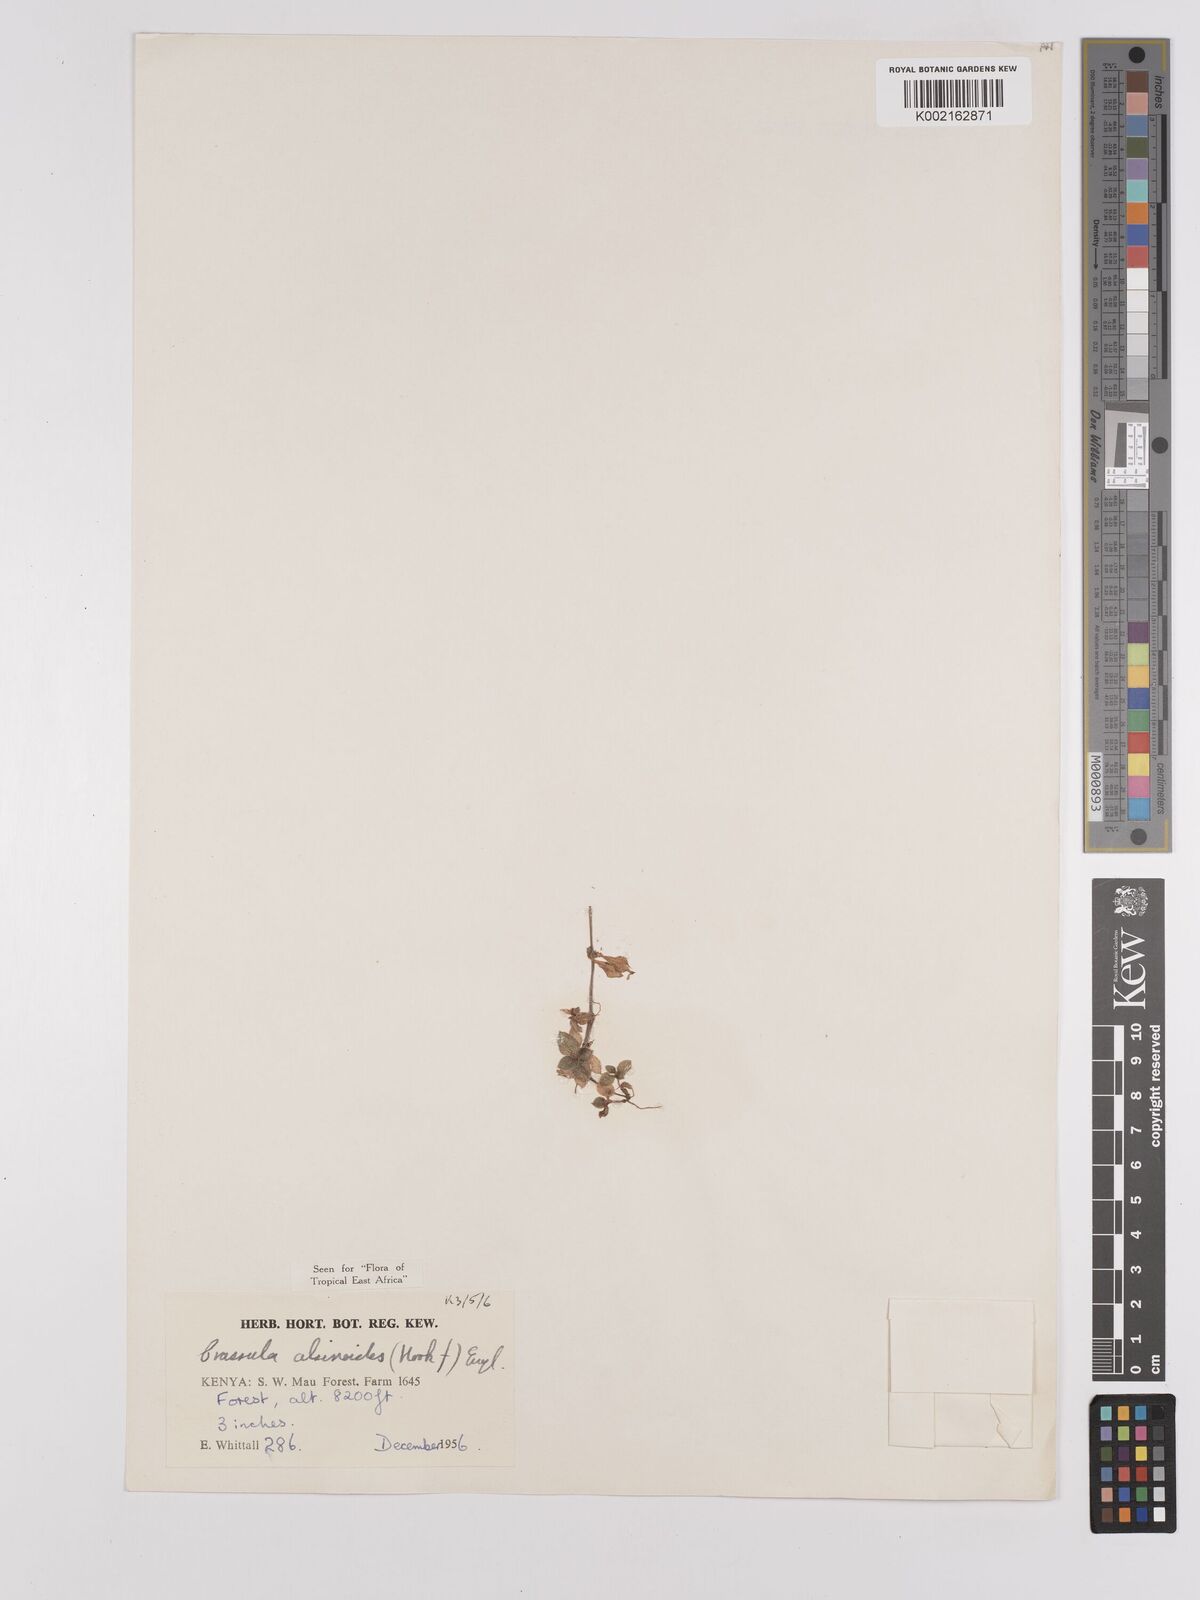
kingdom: Plantae
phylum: Tracheophyta
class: Magnoliopsida
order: Saxifragales
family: Crassulaceae
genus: Crassula
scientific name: Crassula alsinoides
